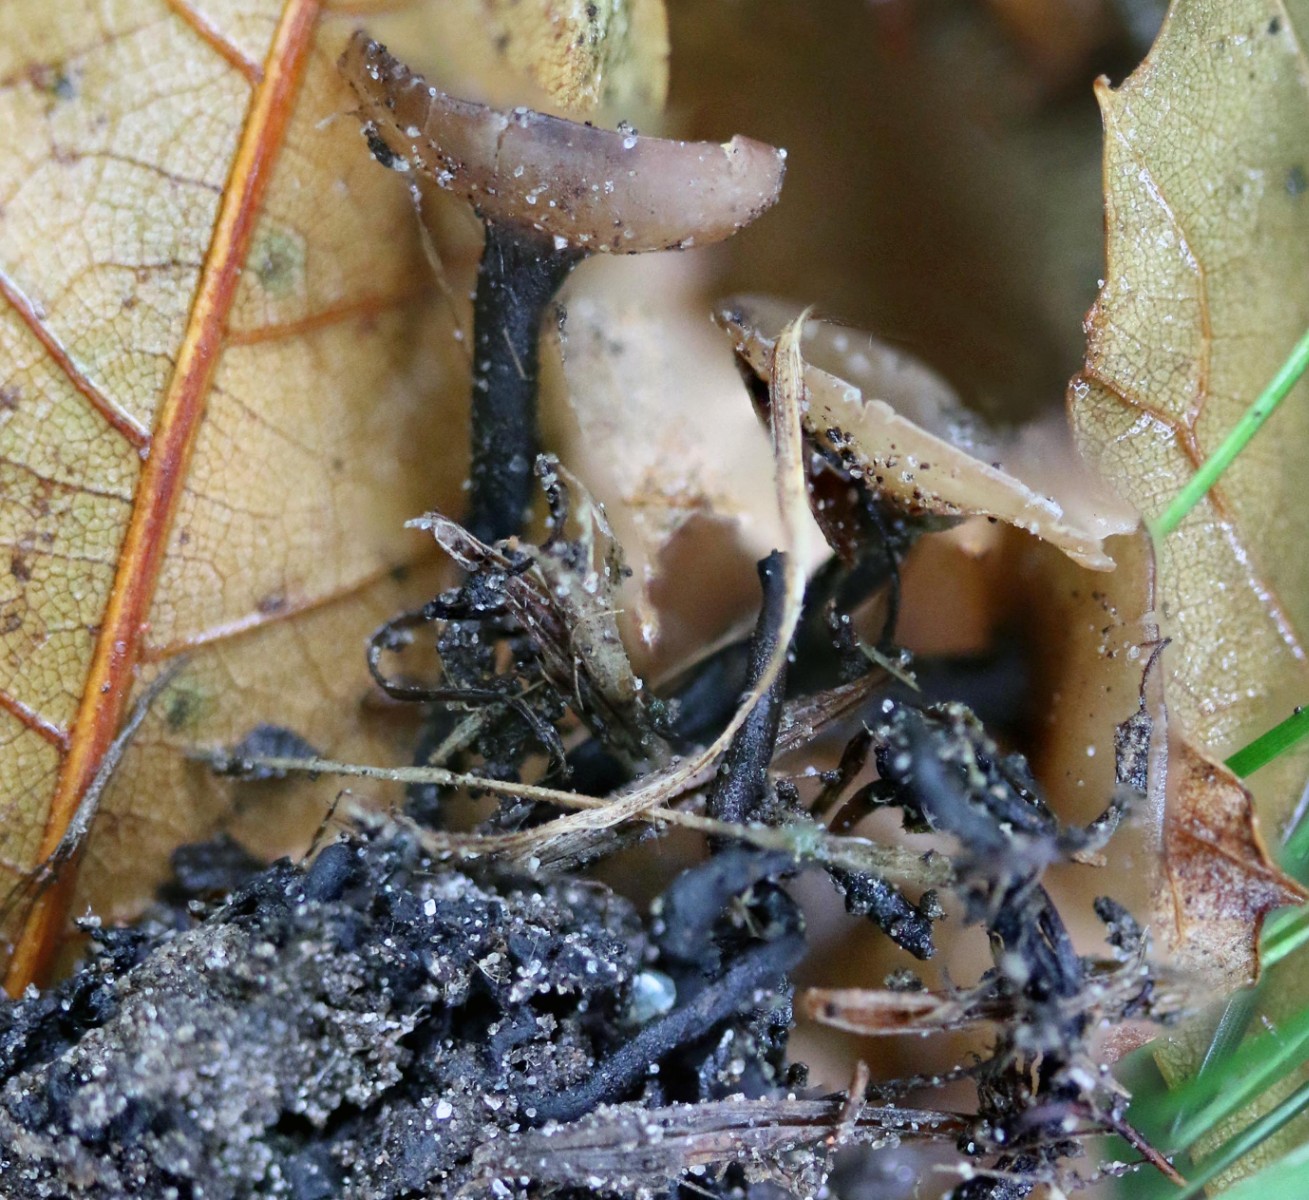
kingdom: Fungi
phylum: Ascomycota
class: Leotiomycetes
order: Helotiales
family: Sclerotiniaceae
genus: Ciboria
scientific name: Ciboria batschiana
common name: agern-knoldskive
